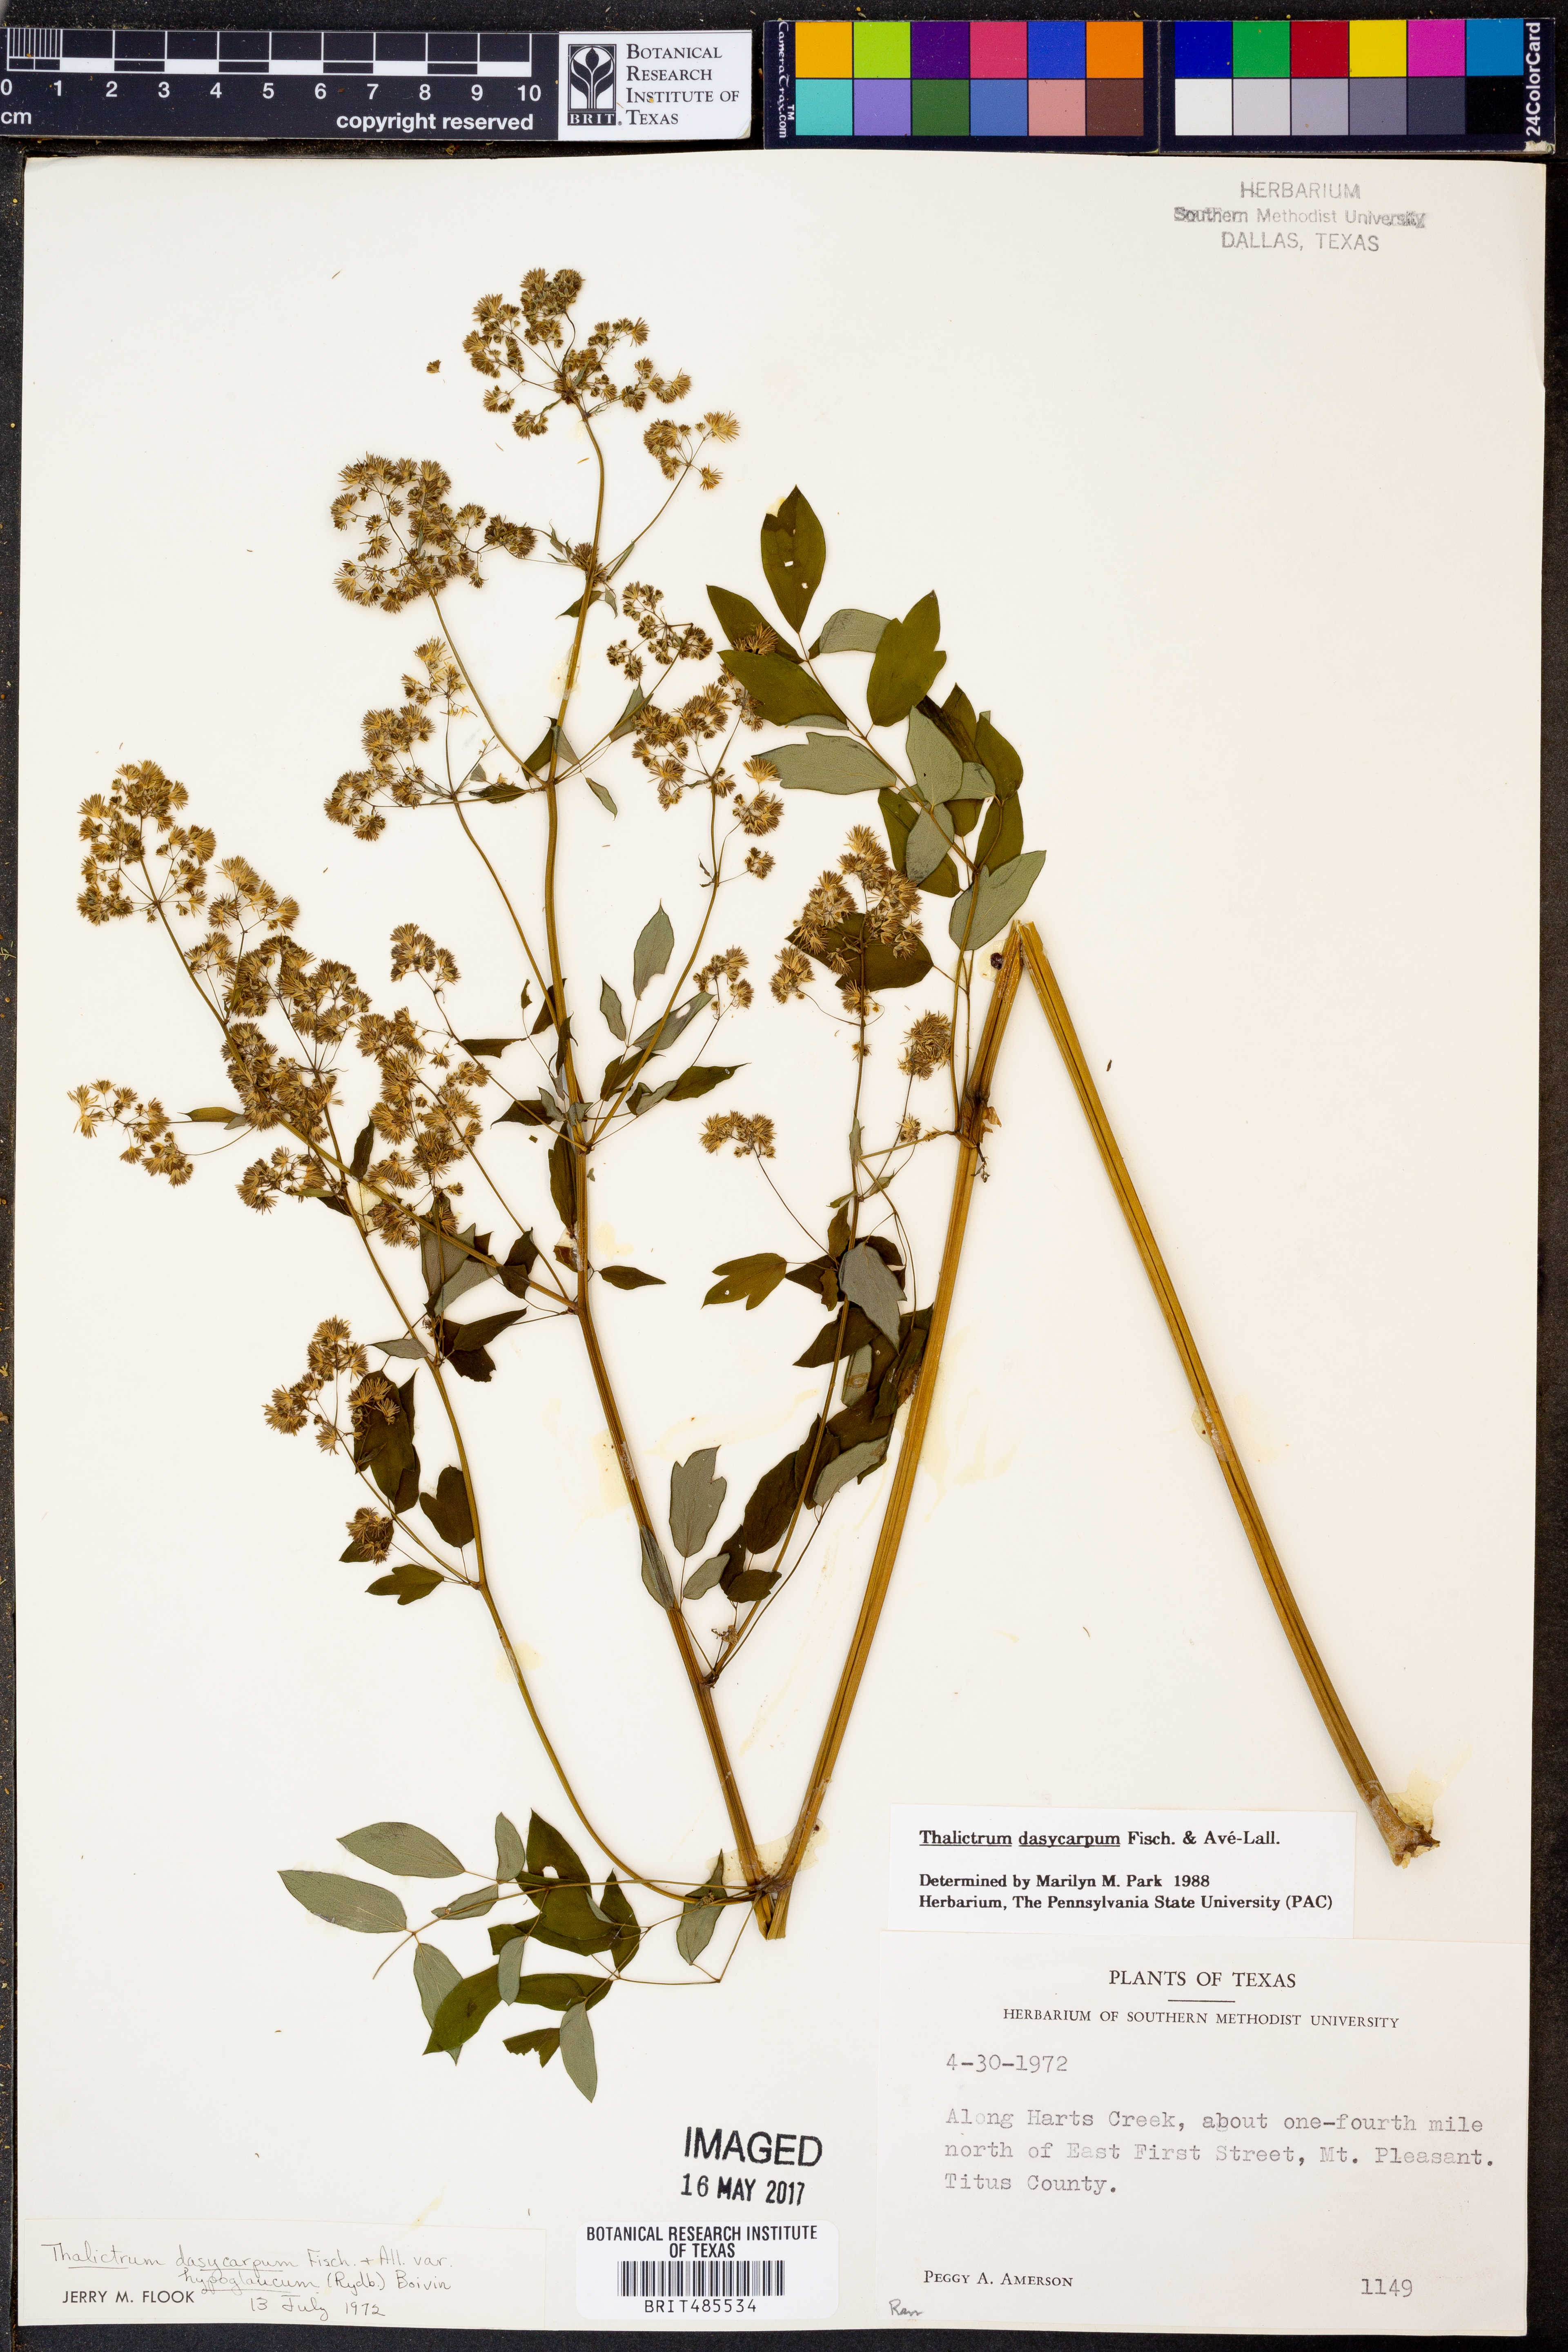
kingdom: Plantae
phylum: Tracheophyta
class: Magnoliopsida
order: Ranunculales
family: Ranunculaceae
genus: Thalictrum
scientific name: Thalictrum dasycarpum
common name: Purple meadow-rue
